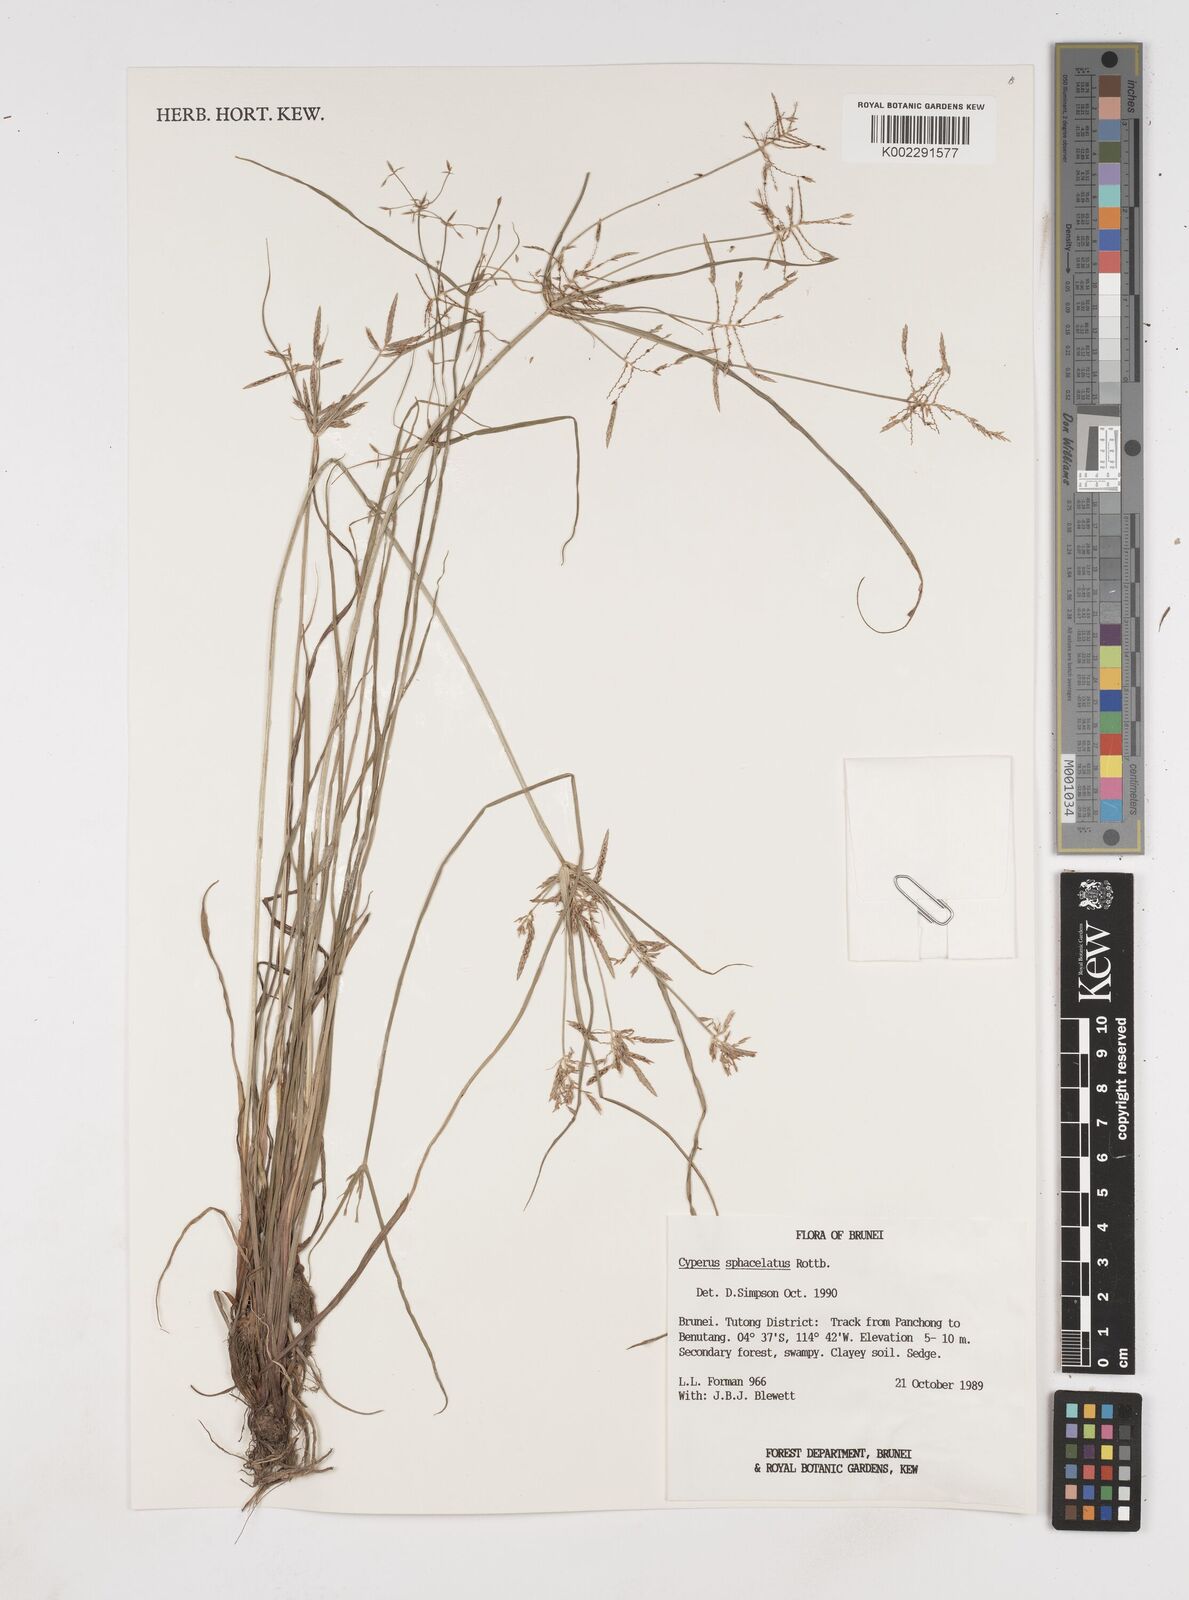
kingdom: Plantae
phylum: Tracheophyta
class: Liliopsida
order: Poales
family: Cyperaceae
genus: Cyperus
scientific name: Cyperus sphacelatus
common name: Roadside flatsedge
